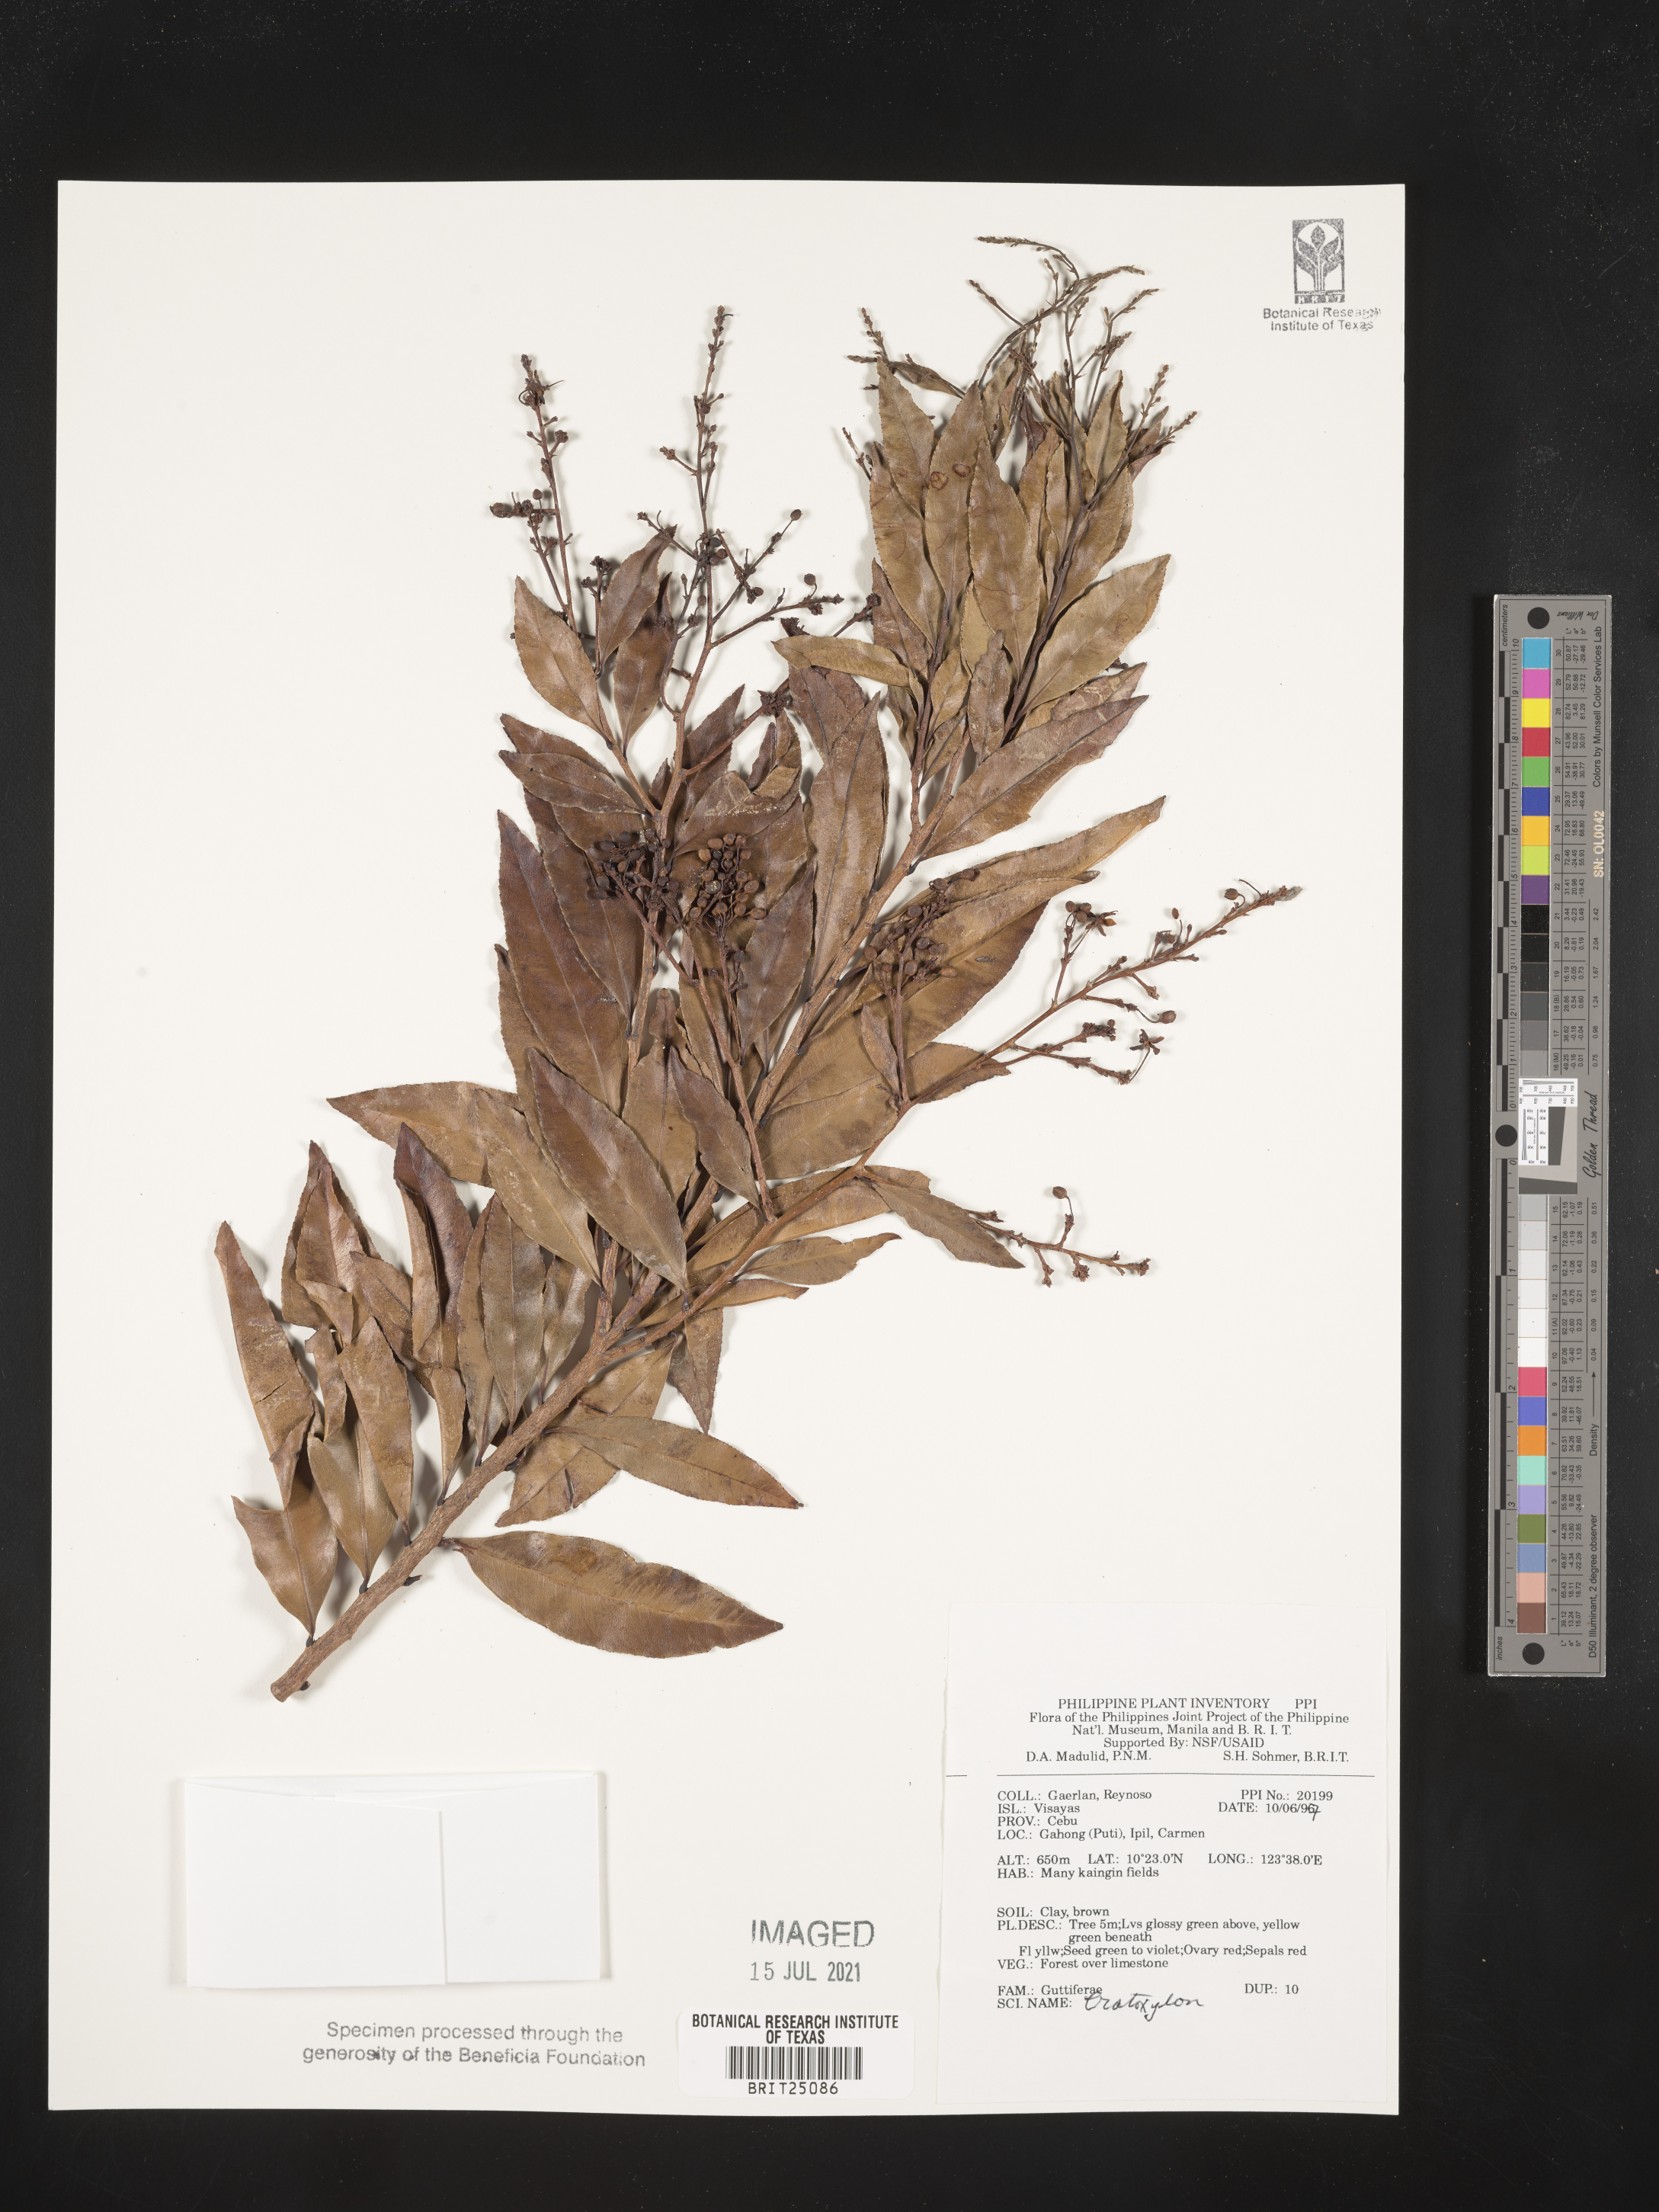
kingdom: Plantae
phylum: Tracheophyta
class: Magnoliopsida
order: Malpighiales
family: Hypericaceae
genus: Cratoxylum
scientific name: Cratoxylum
